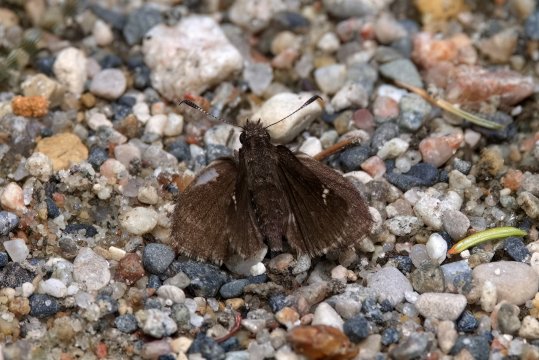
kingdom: Animalia
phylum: Arthropoda
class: Insecta
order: Lepidoptera
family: Hesperiidae
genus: Mastor
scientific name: Mastor vialis
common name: Common Roadside-Skipper
